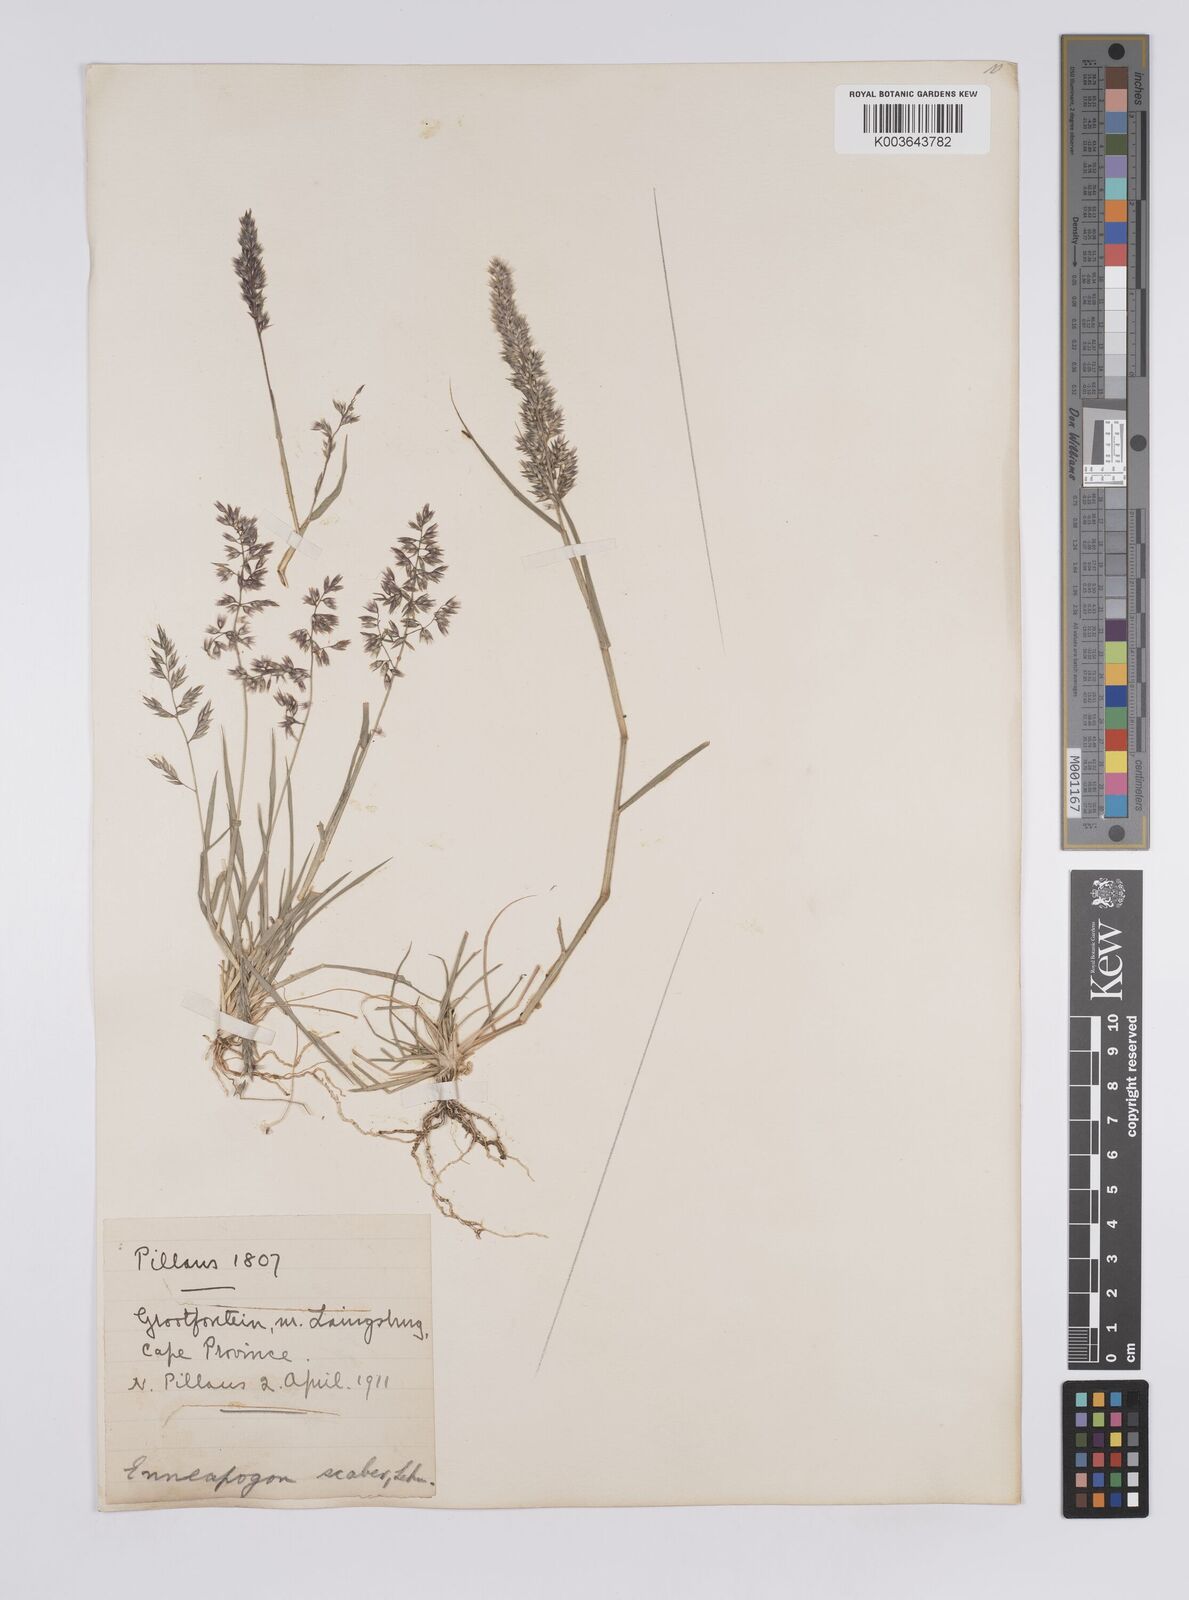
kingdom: Plantae
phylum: Tracheophyta
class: Liliopsida
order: Poales
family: Poaceae
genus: Enneapogon
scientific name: Enneapogon scaber
